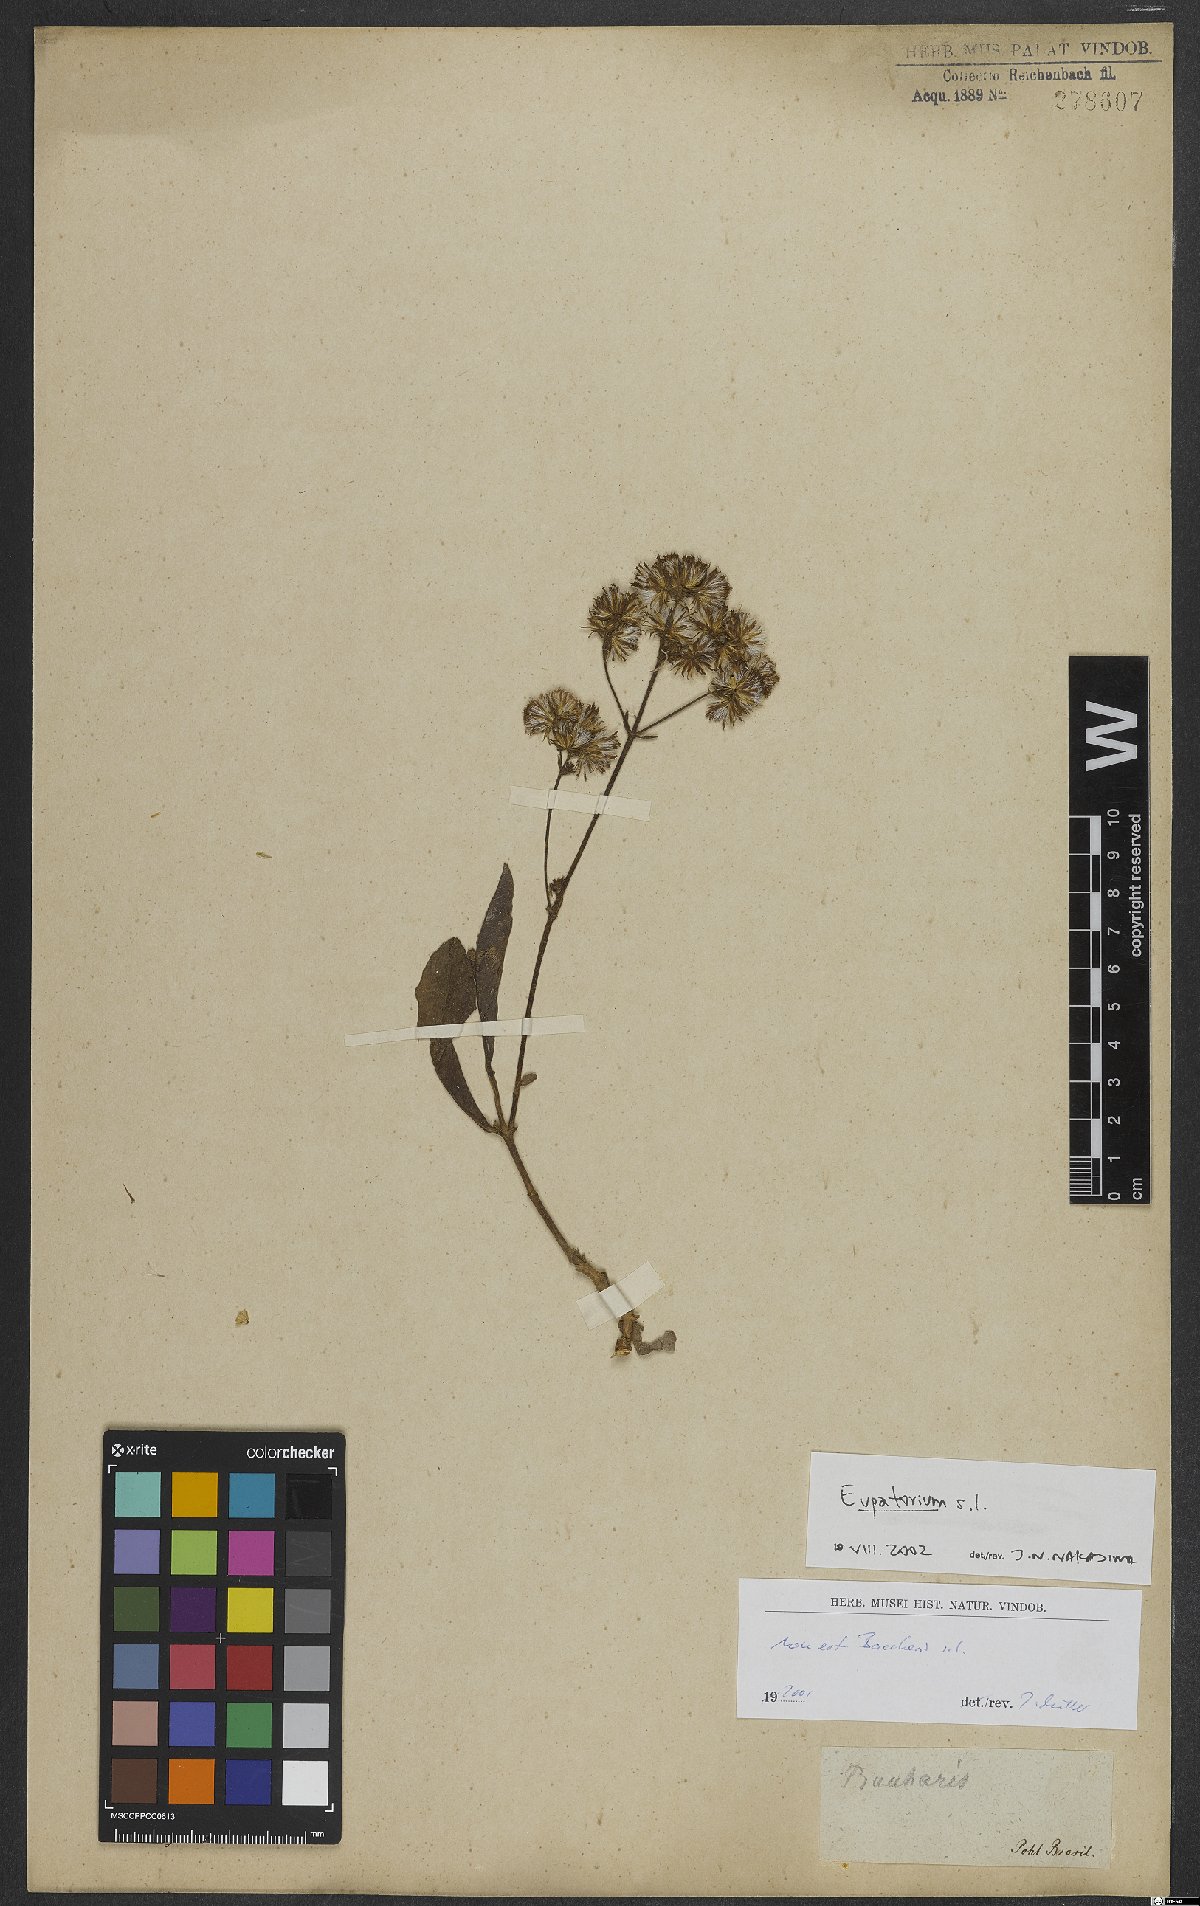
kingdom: Plantae
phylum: Tracheophyta
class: Magnoliopsida
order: Asterales
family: Asteraceae
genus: Eupatorium
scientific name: Eupatorium
